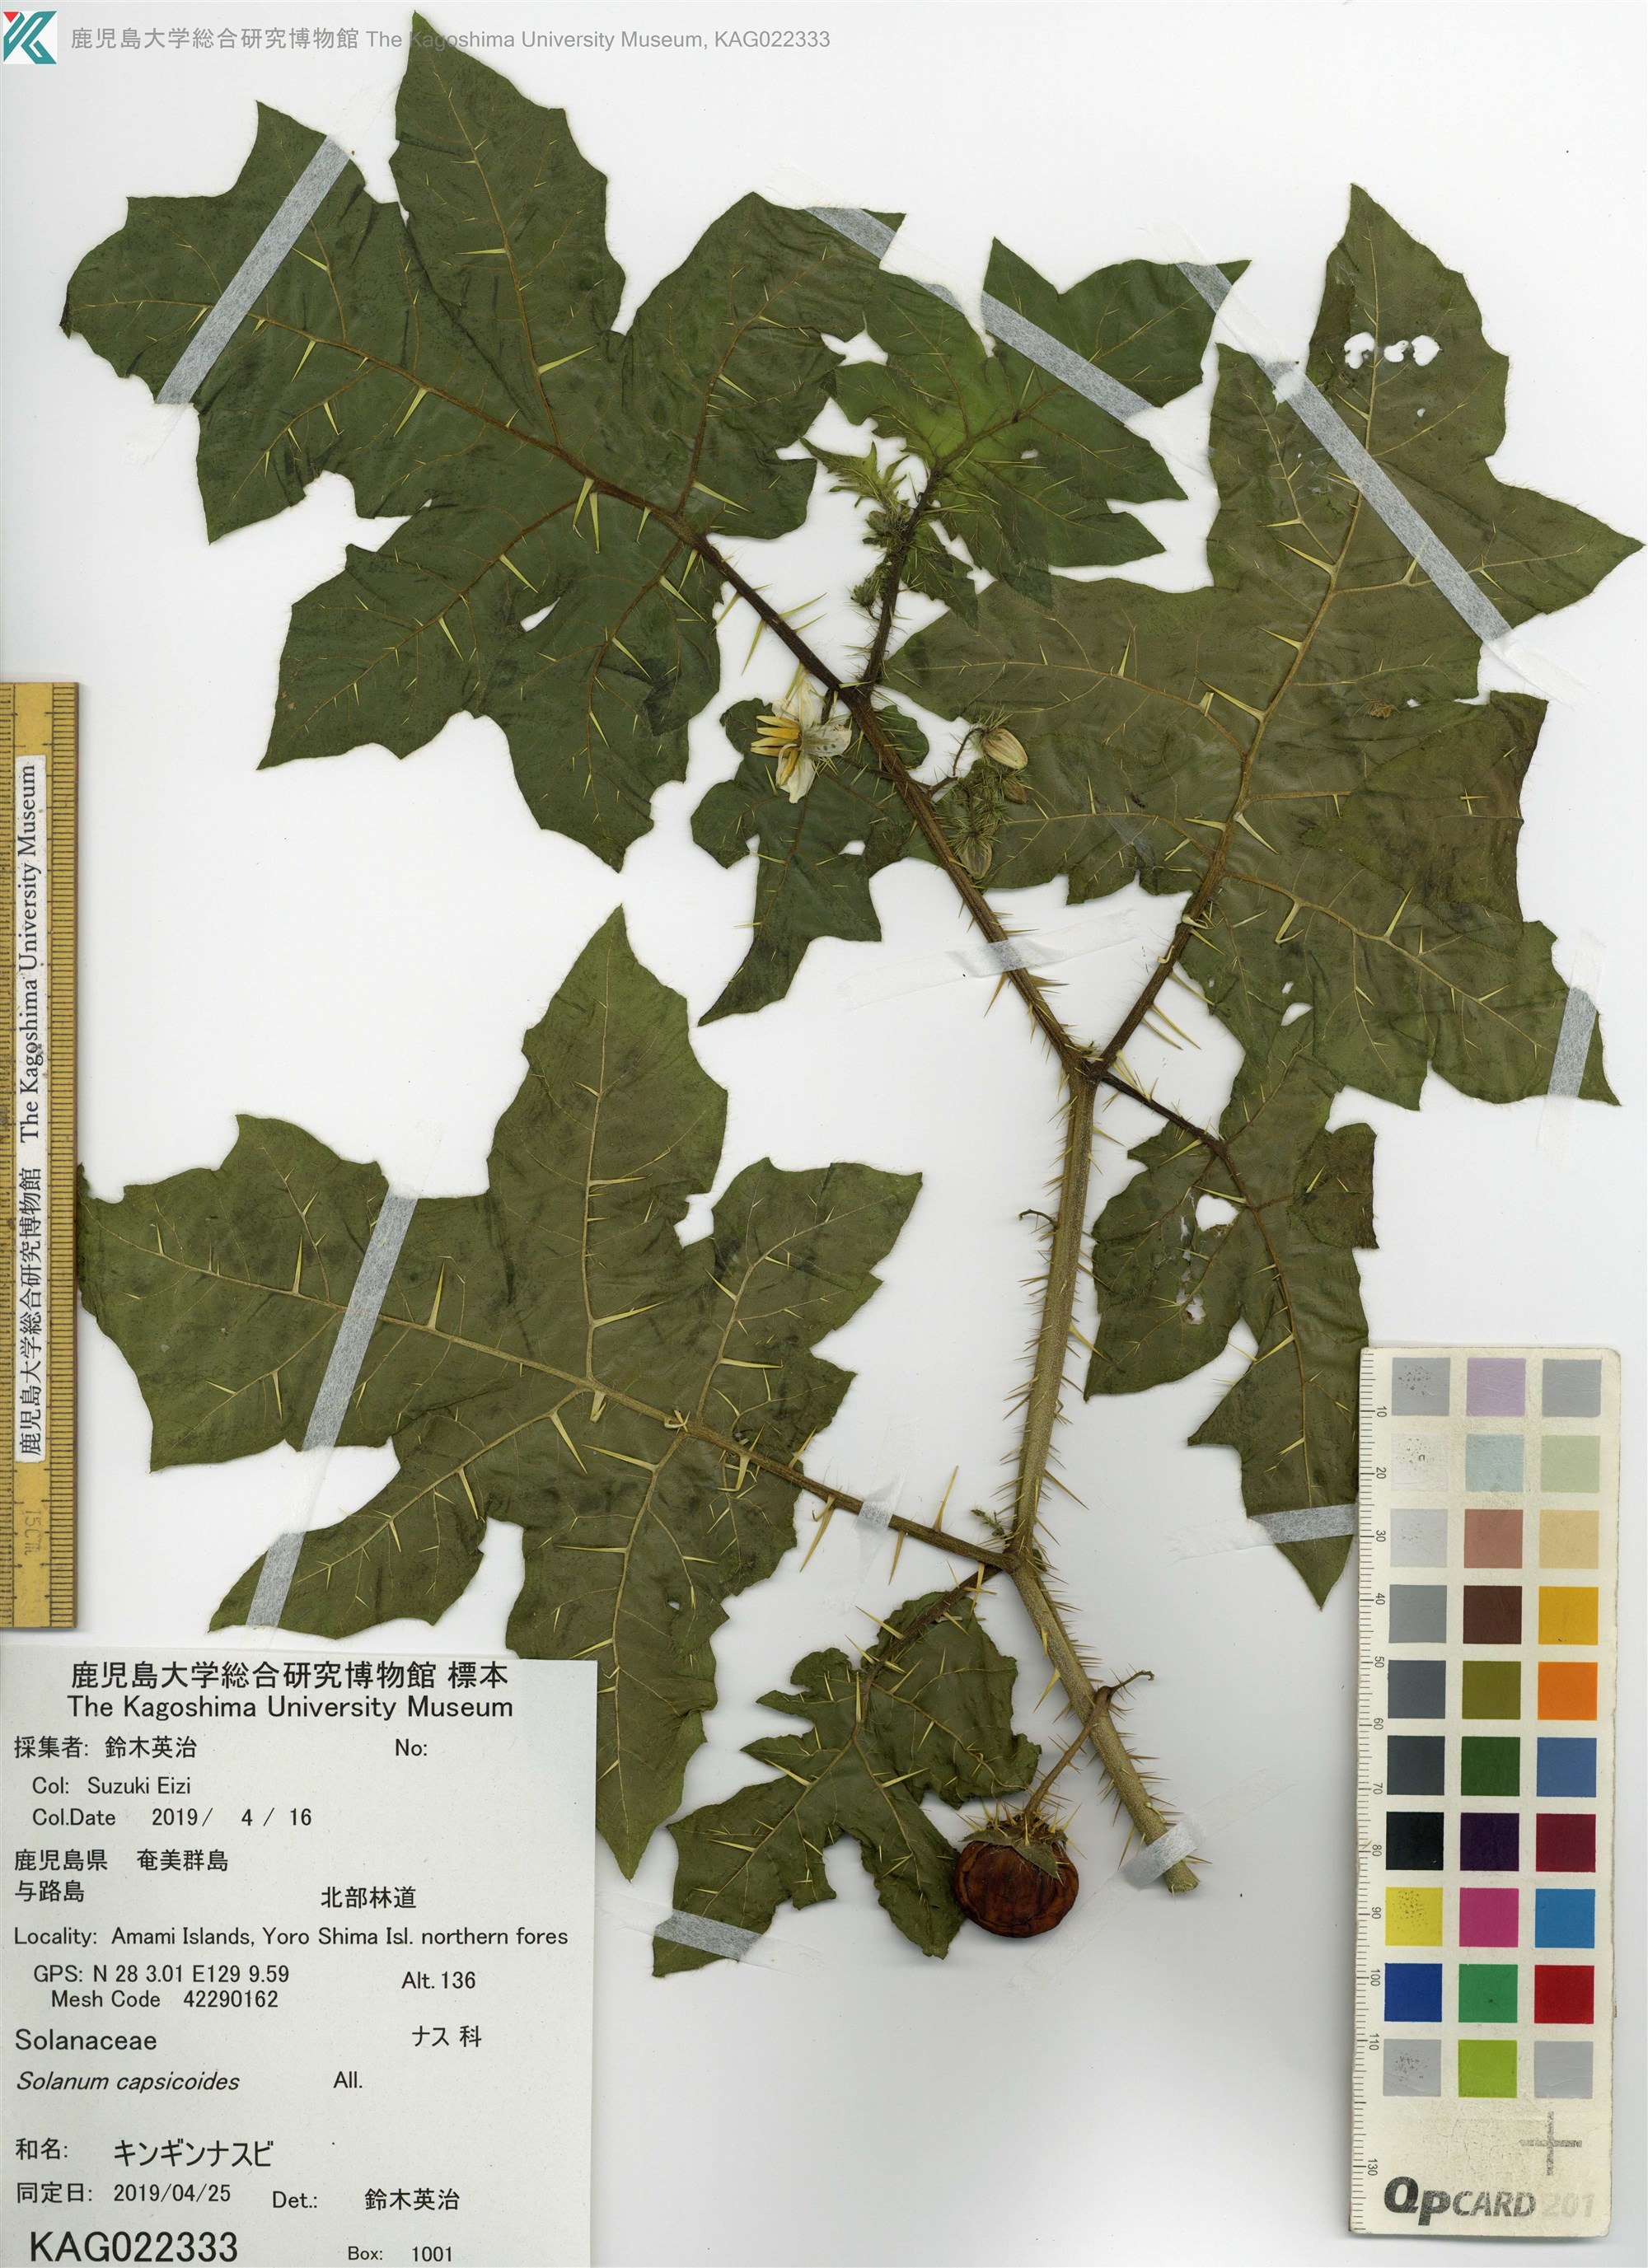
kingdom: Plantae
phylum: Tracheophyta
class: Magnoliopsida
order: Solanales
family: Solanaceae
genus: Solanum
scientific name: Solanum capsicoides
